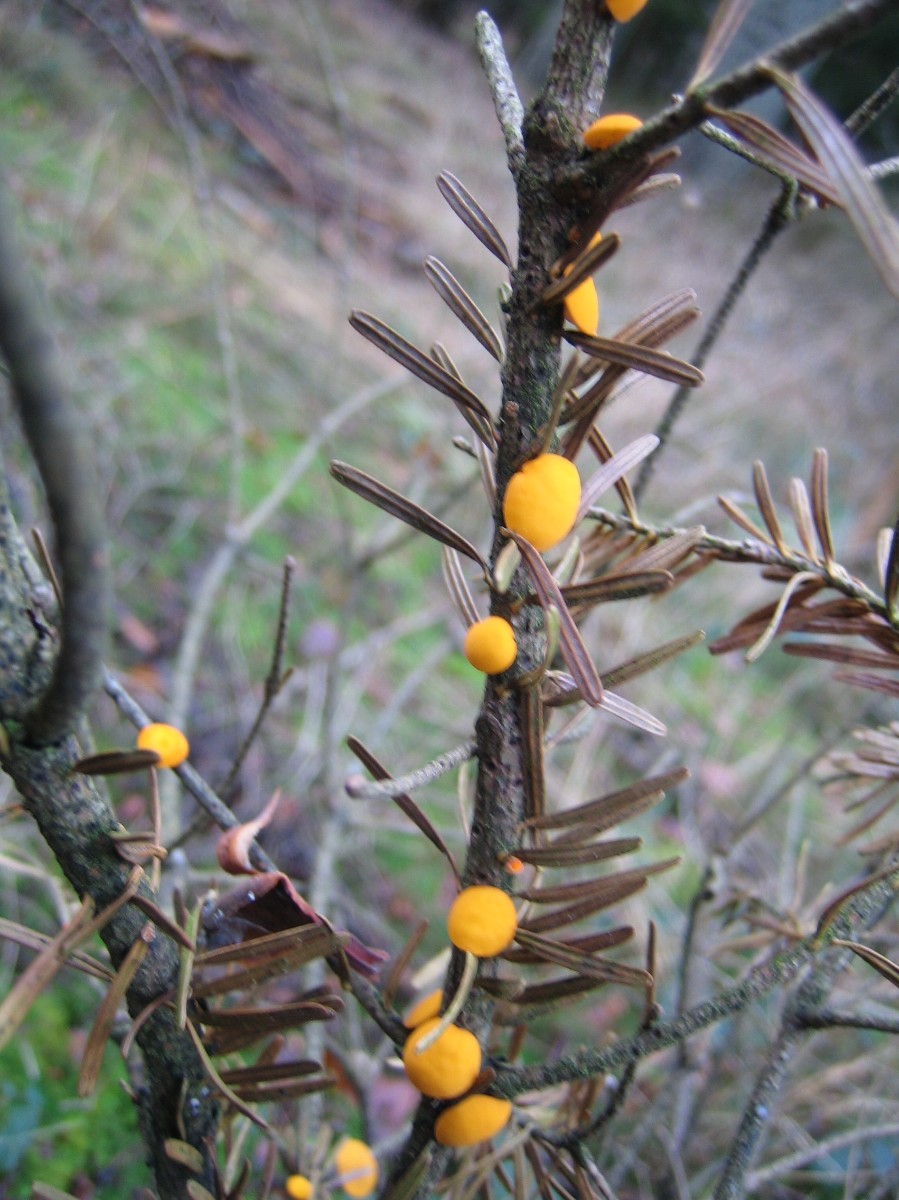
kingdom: Fungi
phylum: Ascomycota
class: Pezizomycetes
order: Pezizales
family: Sarcoscyphaceae
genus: Pithya
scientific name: Pithya vulgaris
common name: stor dukatbæger
